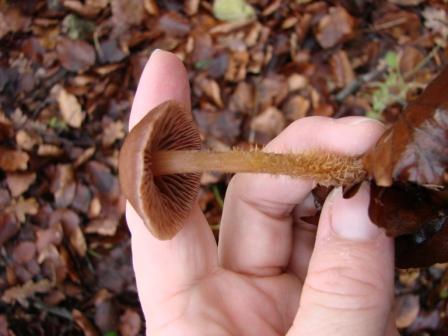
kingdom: Fungi
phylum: Basidiomycota
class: Agaricomycetes
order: Agaricales
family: Omphalotaceae
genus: Gymnopus
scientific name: Gymnopus fagiphilus
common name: bøgeløv-fladhat
